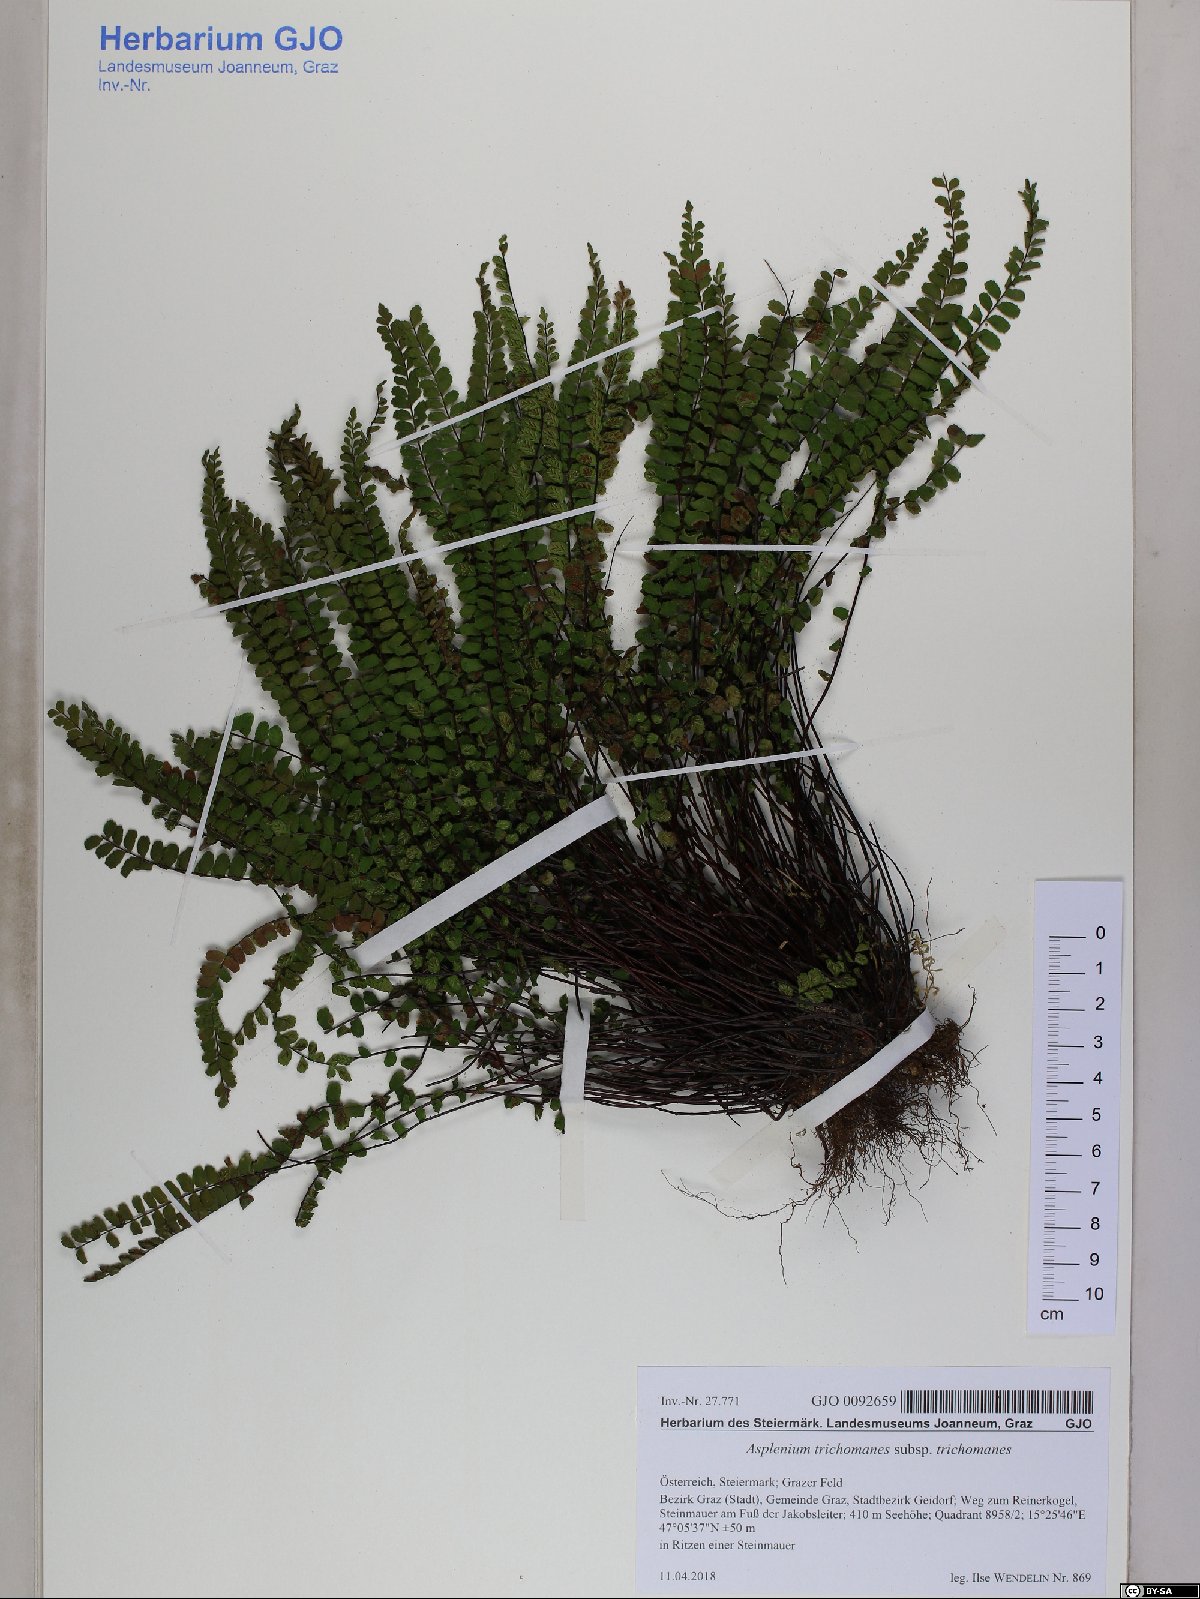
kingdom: Plantae
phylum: Tracheophyta
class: Polypodiopsida
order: Polypodiales
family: Aspleniaceae
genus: Asplenium
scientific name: Asplenium trichomanes
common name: Maidenhair spleenwort
